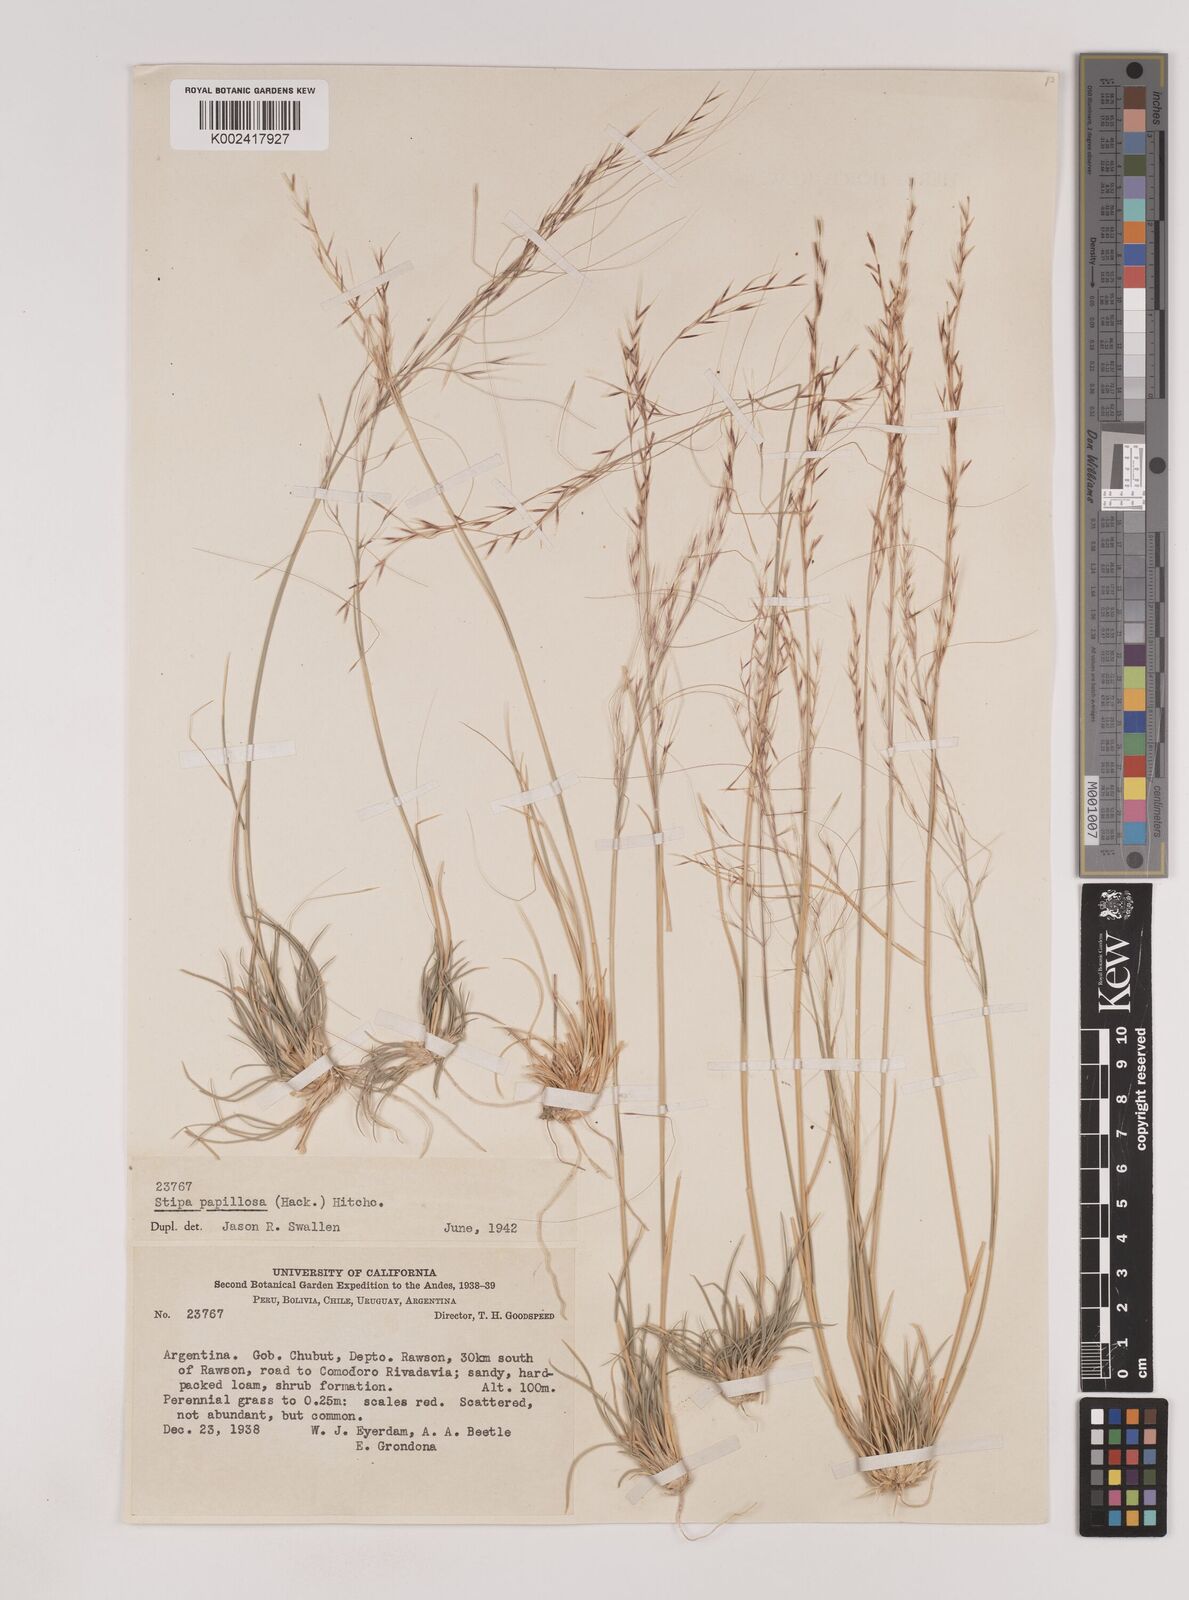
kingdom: Plantae
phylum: Tracheophyta
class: Liliopsida
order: Poales
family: Poaceae
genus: Nassella
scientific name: Nassella
